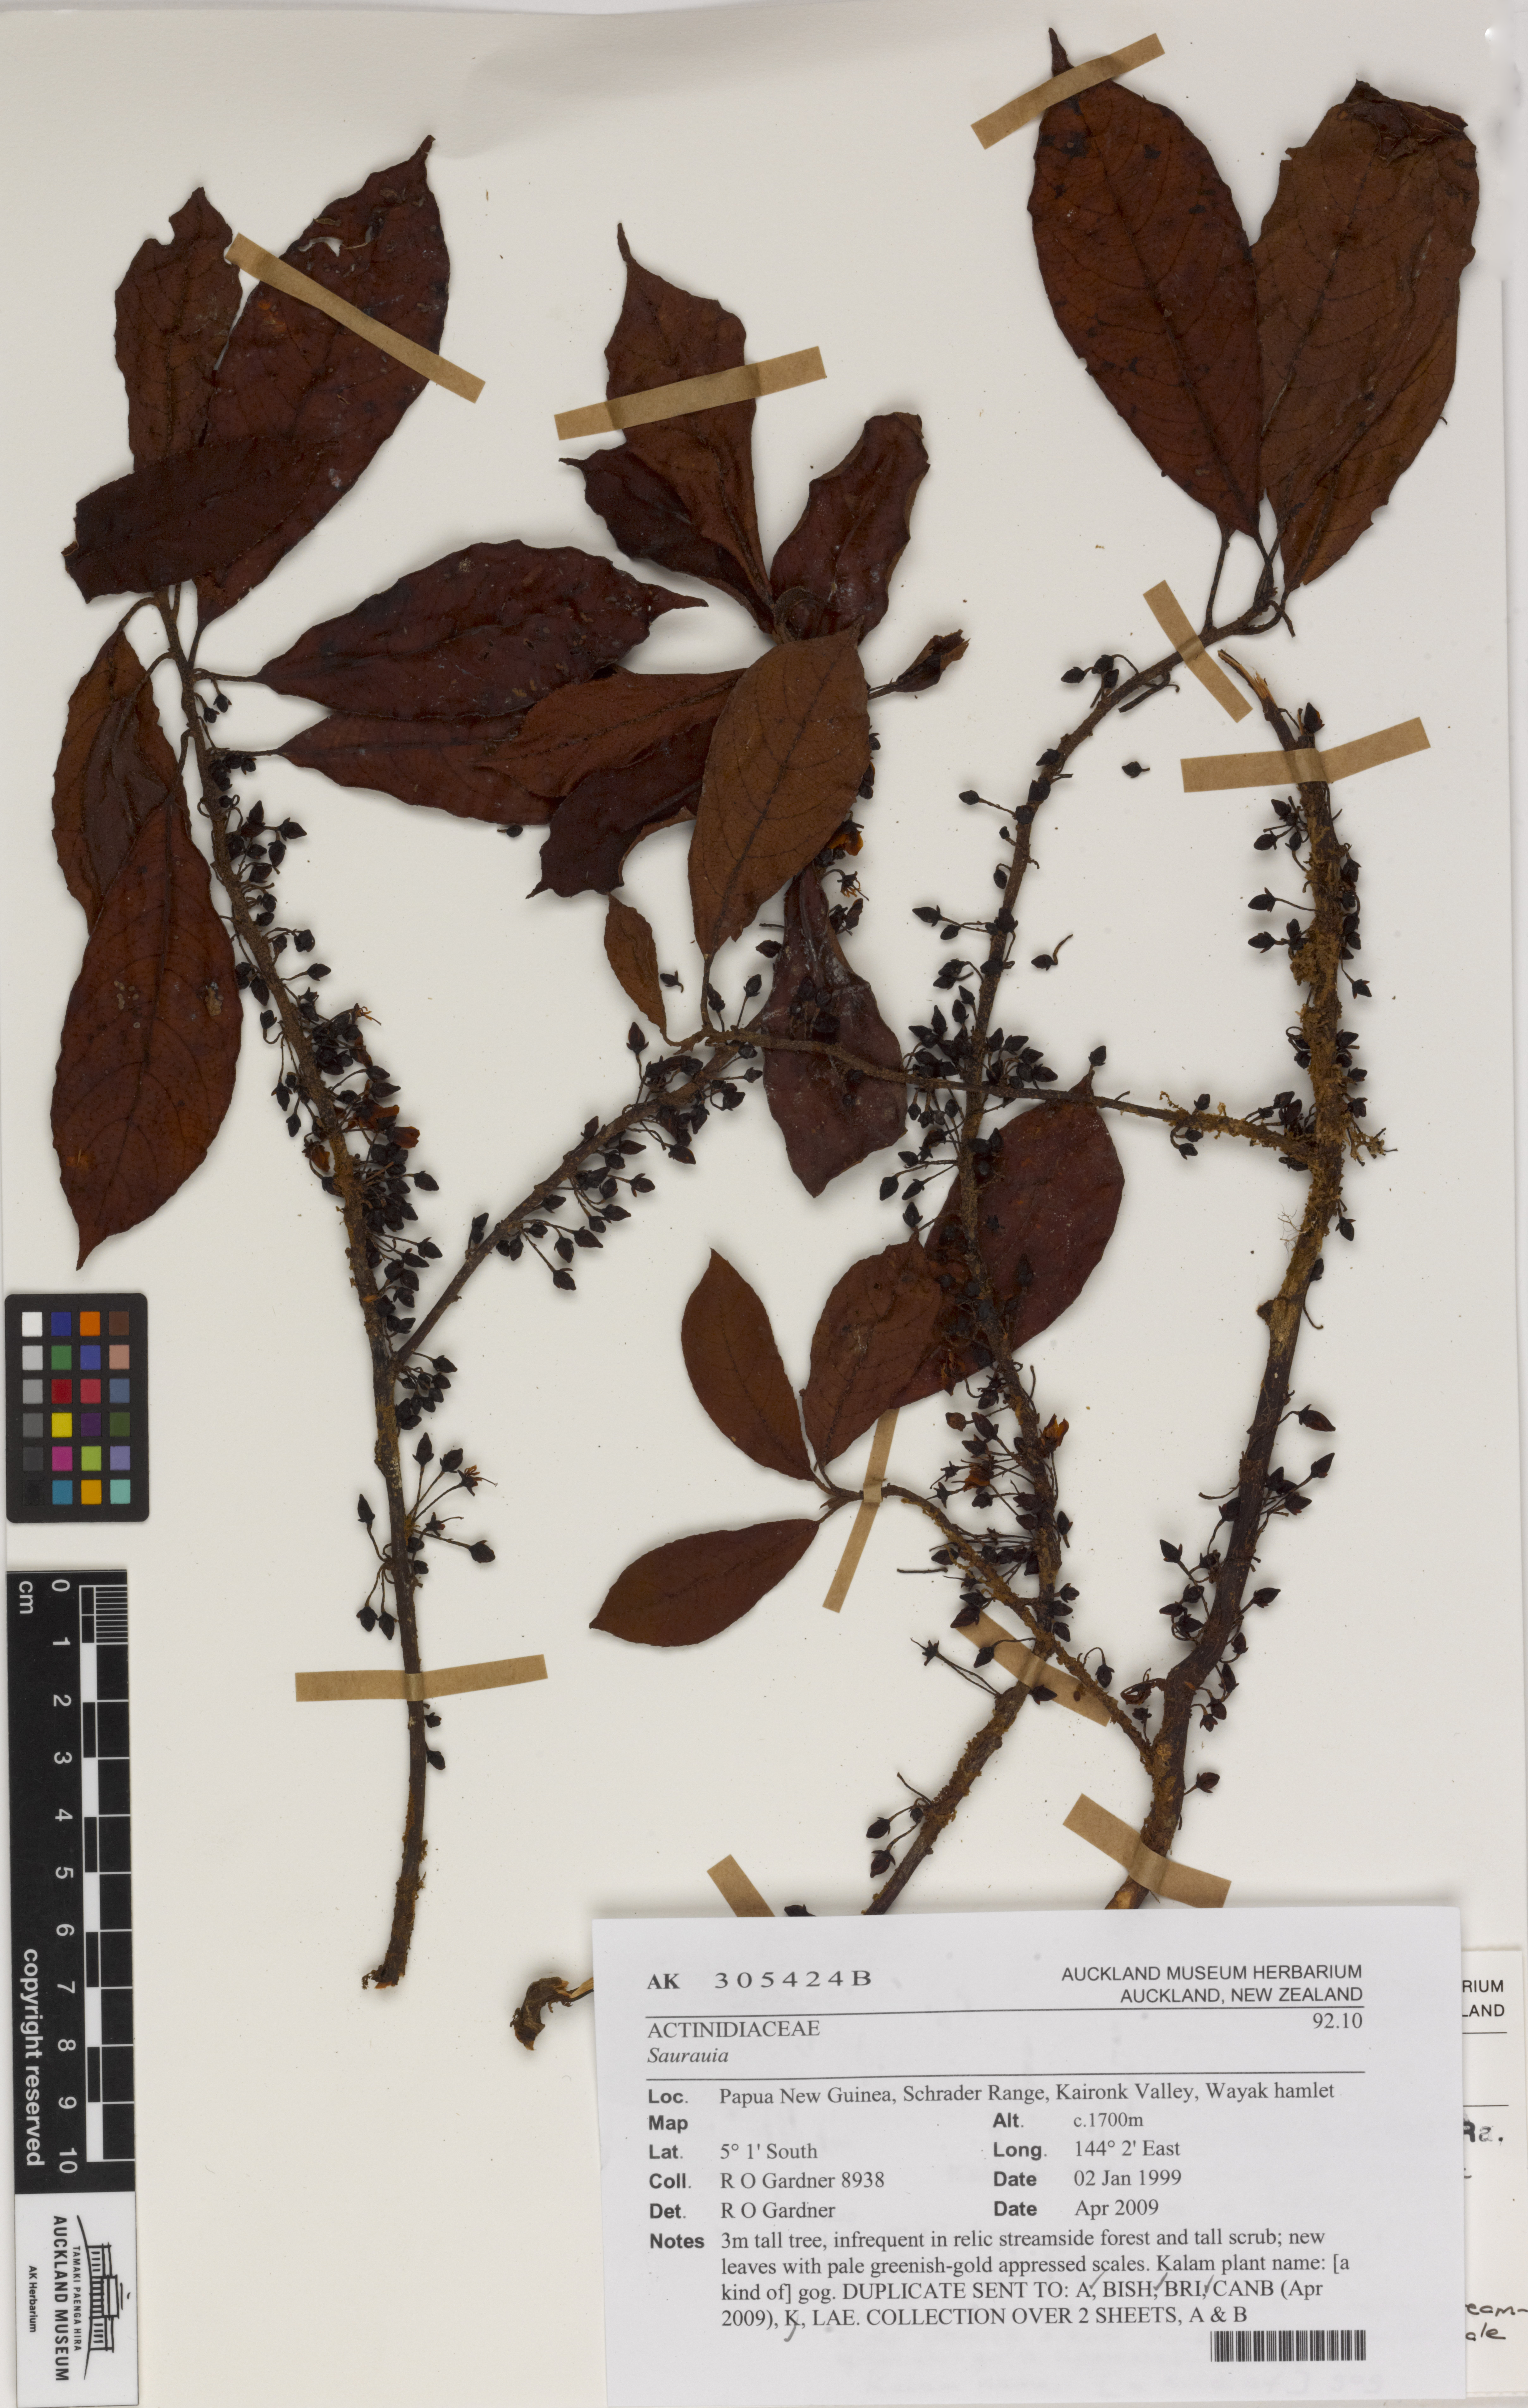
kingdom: Plantae
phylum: Tracheophyta
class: Magnoliopsida
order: Ericales
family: Actinidiaceae
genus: Saurauia
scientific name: Saurauia
